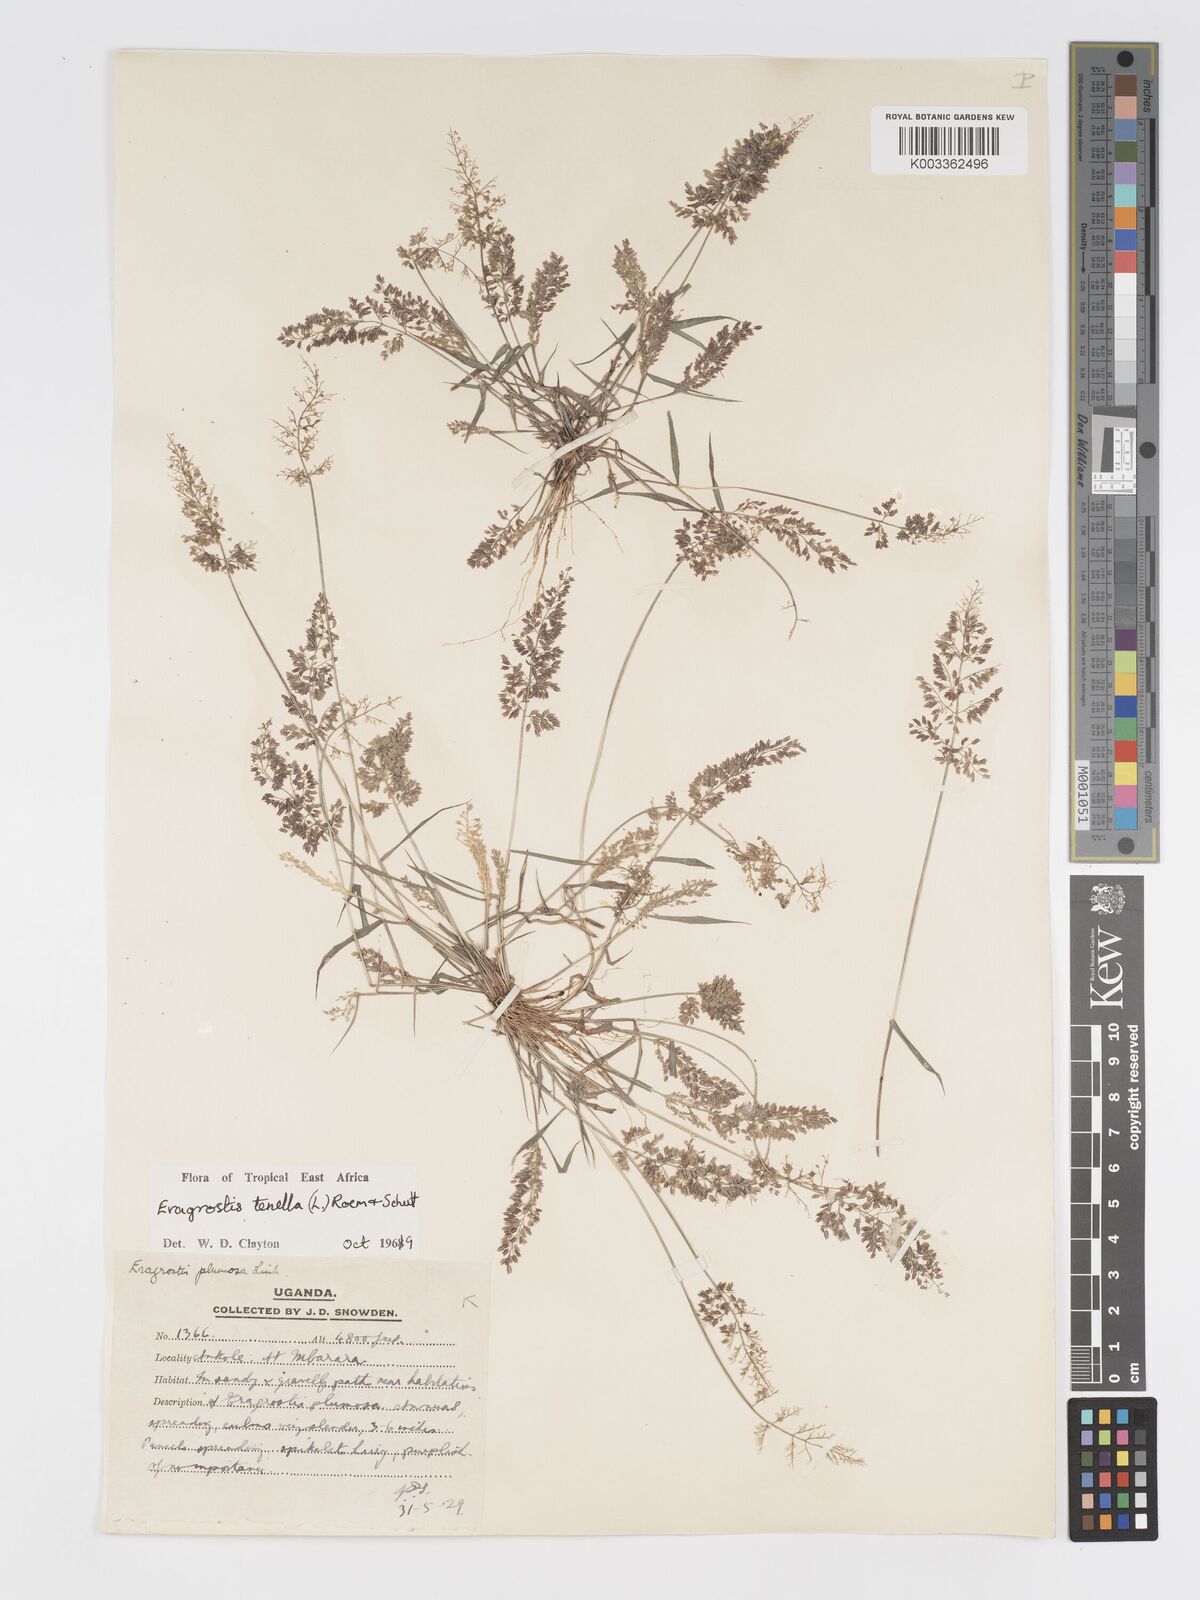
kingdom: Plantae
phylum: Tracheophyta
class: Liliopsida
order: Poales
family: Poaceae
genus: Eragrostis
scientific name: Eragrostis tenella
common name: Japanese lovegrass
